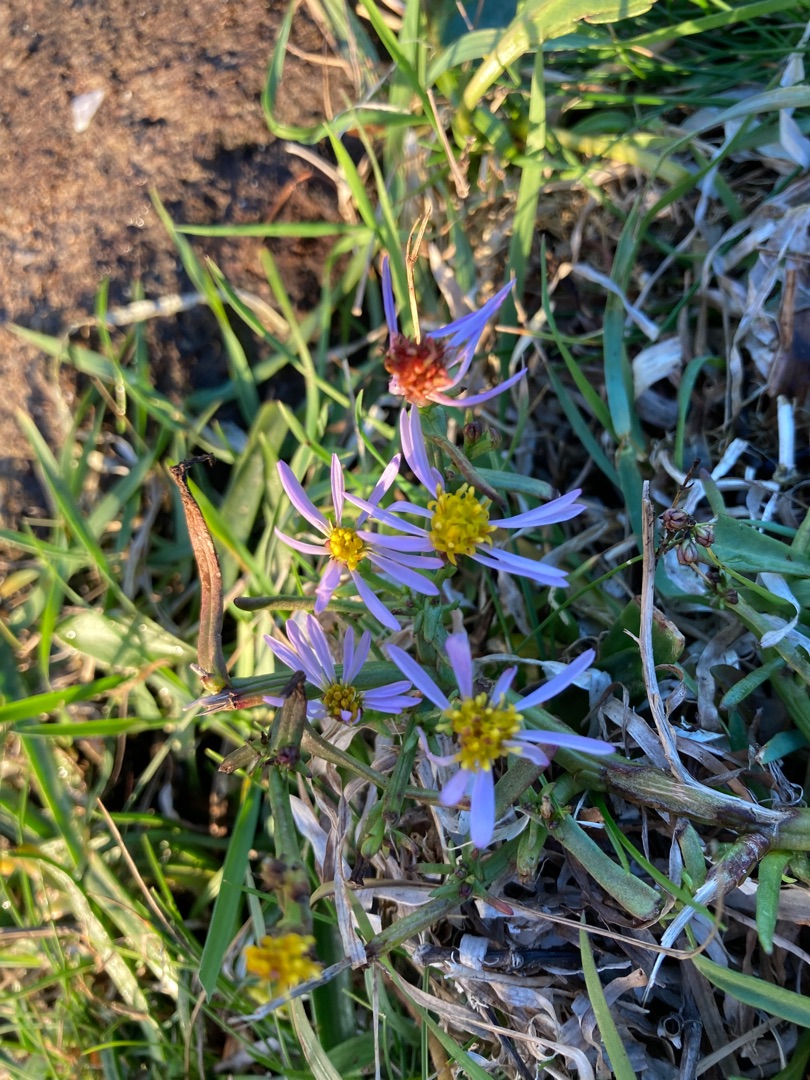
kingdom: Plantae
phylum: Tracheophyta
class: Magnoliopsida
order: Asterales
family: Asteraceae
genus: Tripolium
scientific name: Tripolium pannonicum
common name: Strandasters
